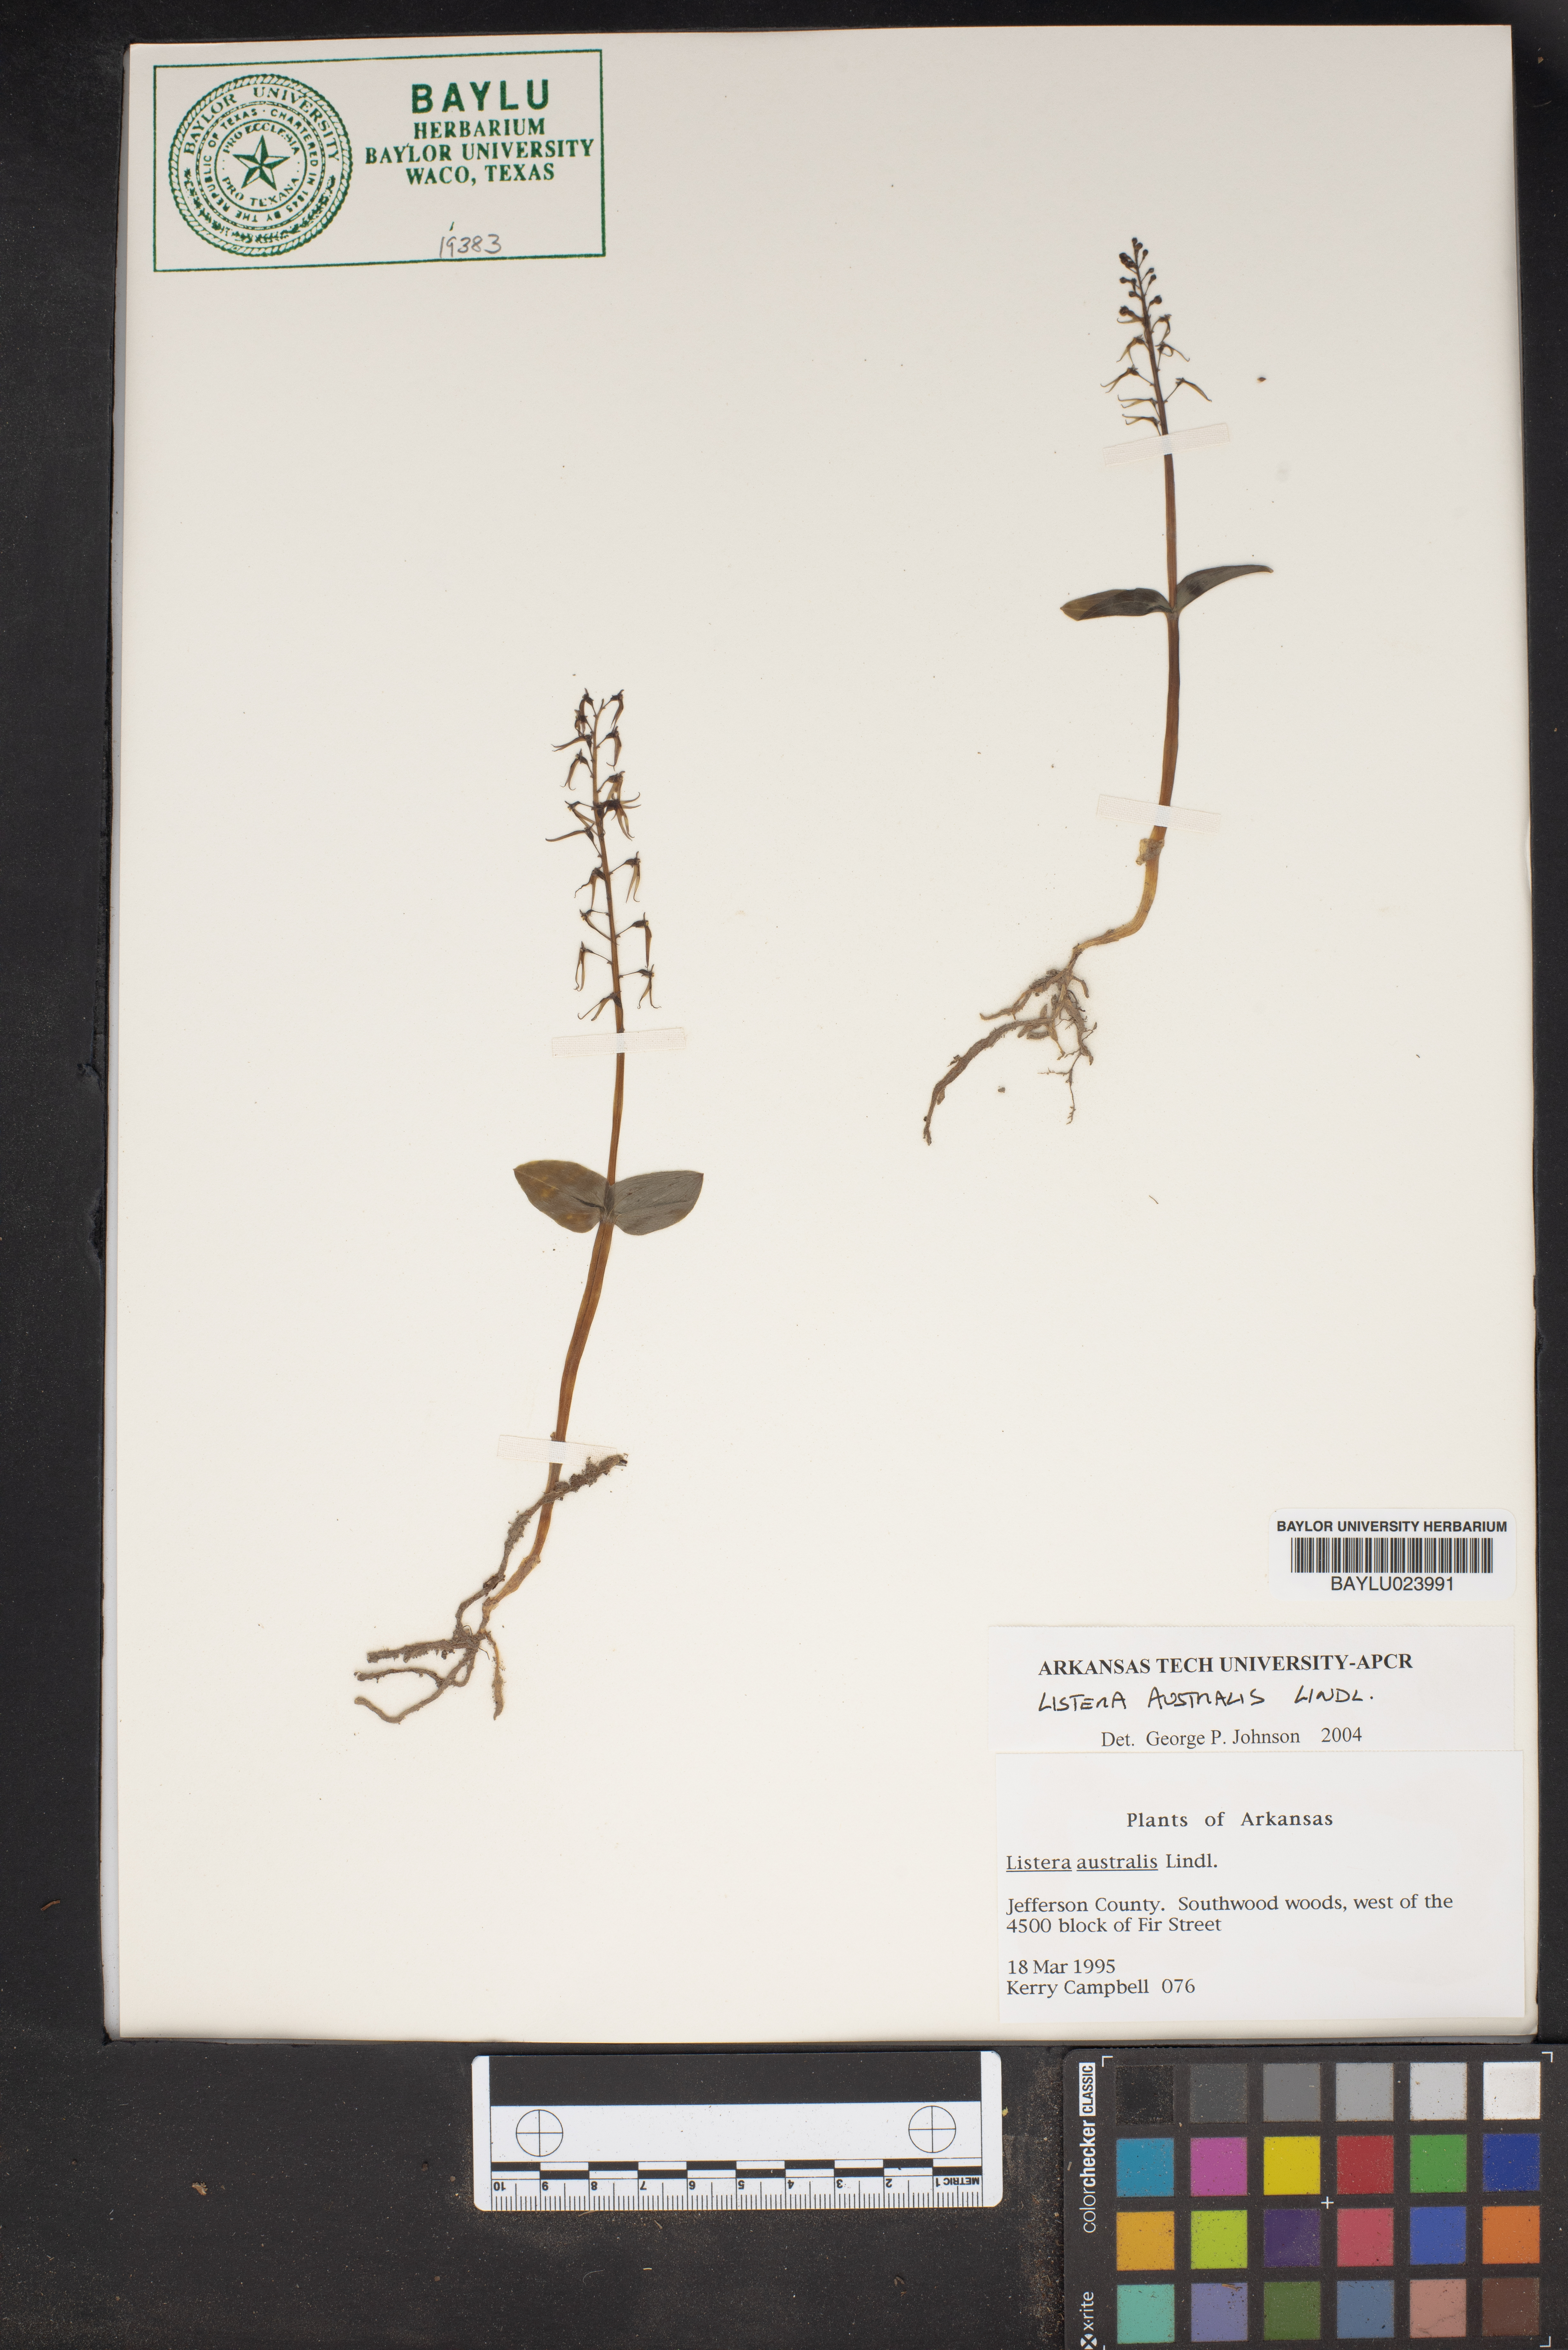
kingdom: Plantae
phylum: Tracheophyta
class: Liliopsida
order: Asparagales
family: Orchidaceae
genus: Neottia
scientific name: Neottia bifolia
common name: Southern twayblade
